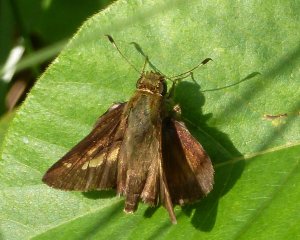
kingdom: Animalia
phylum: Arthropoda
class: Insecta
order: Lepidoptera
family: Hesperiidae
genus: Vernia
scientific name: Vernia verna
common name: Little Glassywing
